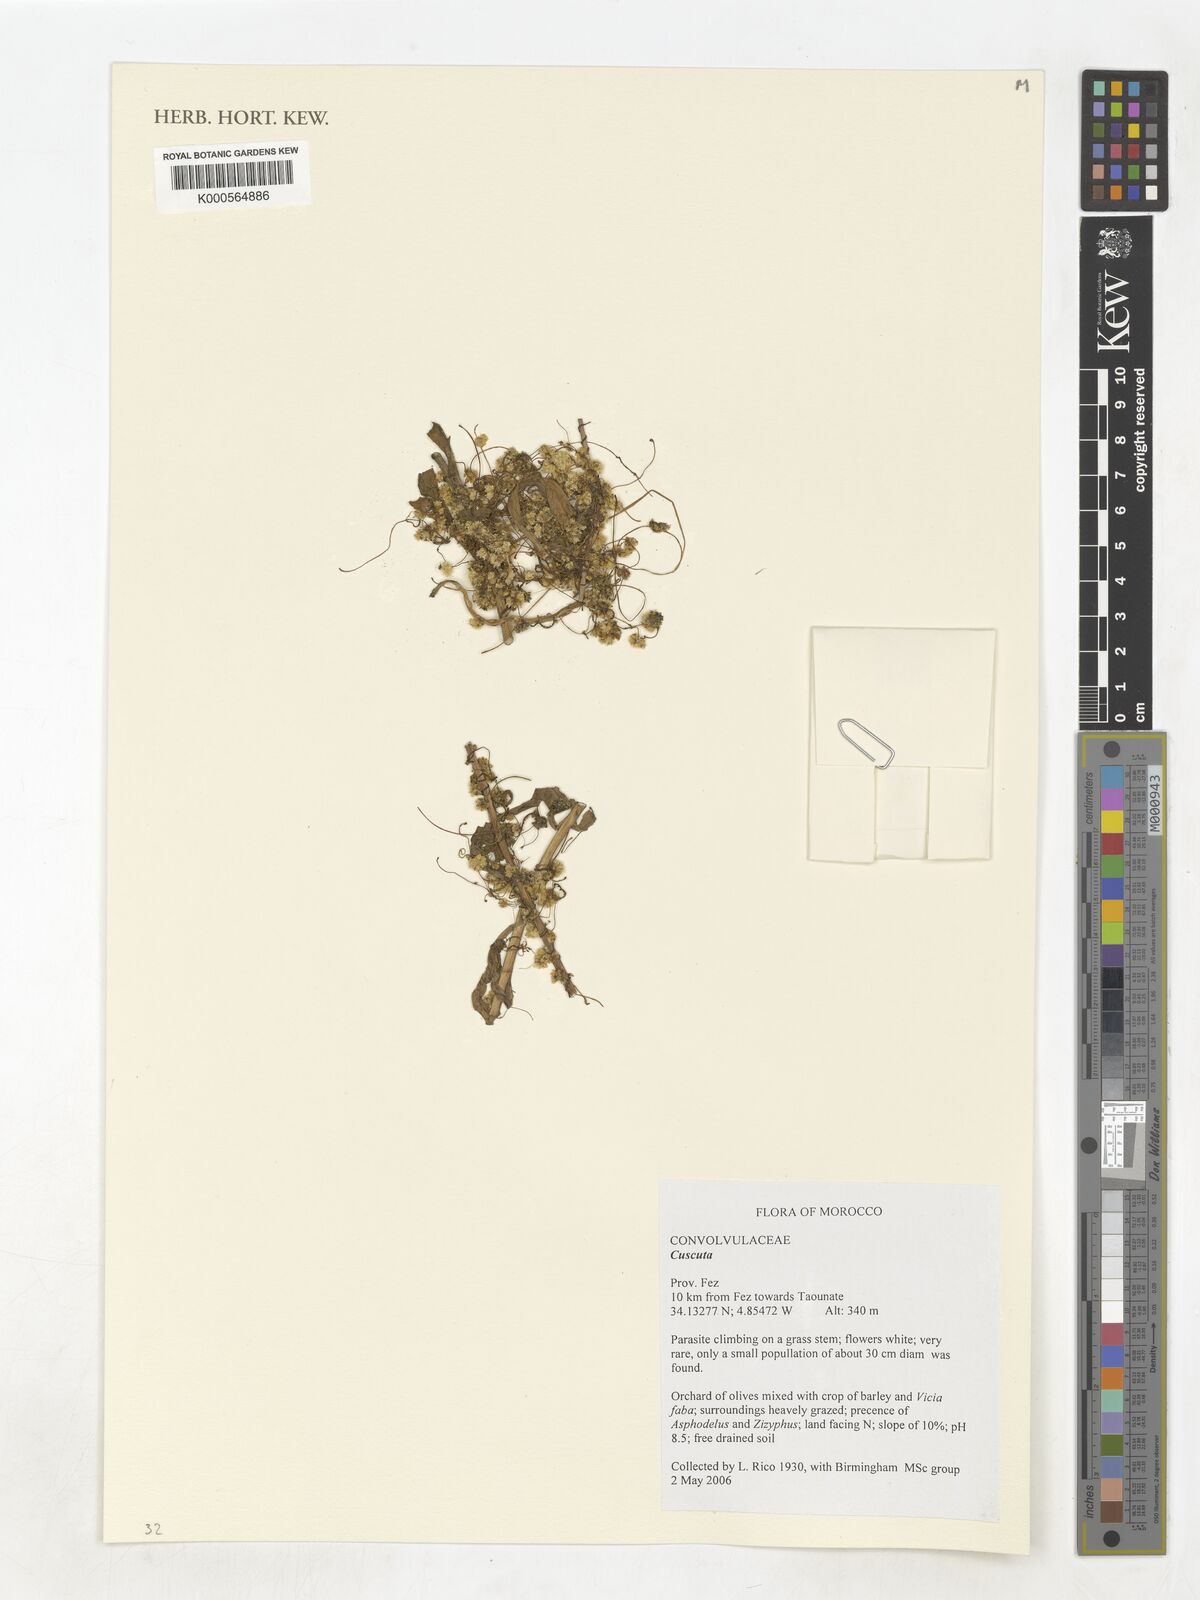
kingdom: Plantae
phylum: Tracheophyta
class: Magnoliopsida
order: Solanales
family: Convolvulaceae
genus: Cuscuta
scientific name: Cuscuta
